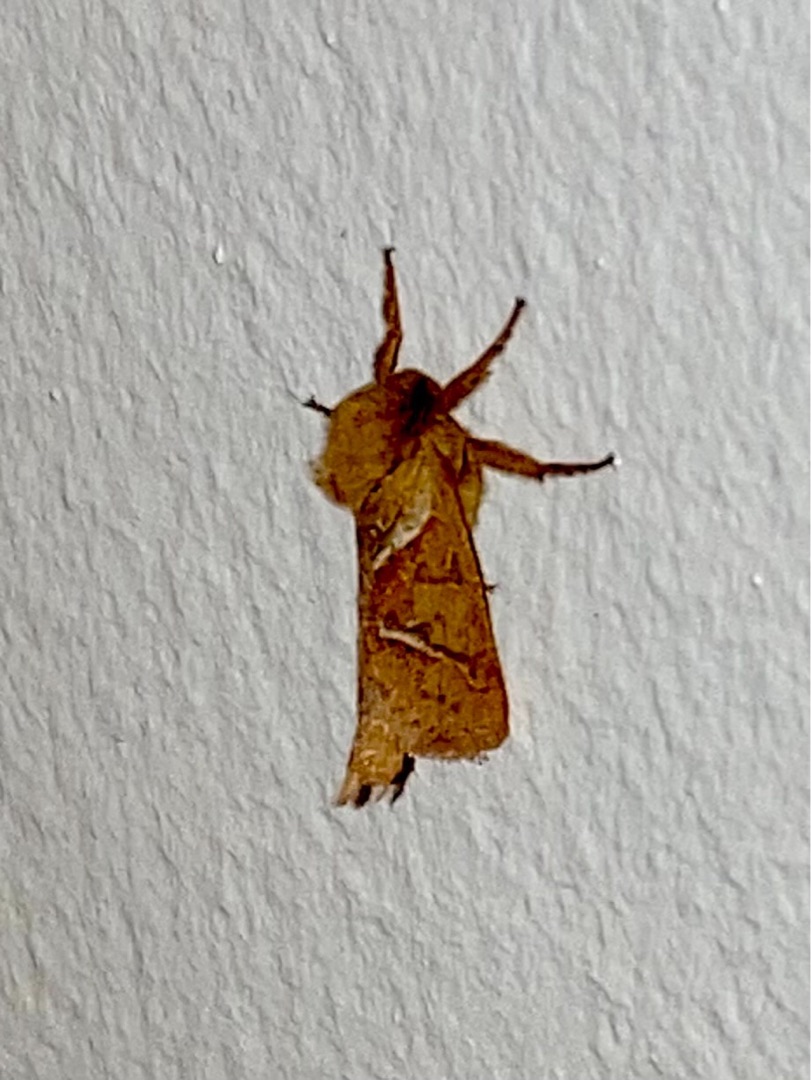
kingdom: Animalia
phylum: Arthropoda
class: Insecta
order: Lepidoptera
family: Hepialidae
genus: Triodia
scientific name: Triodia sylvina
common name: Skræpperodæder
